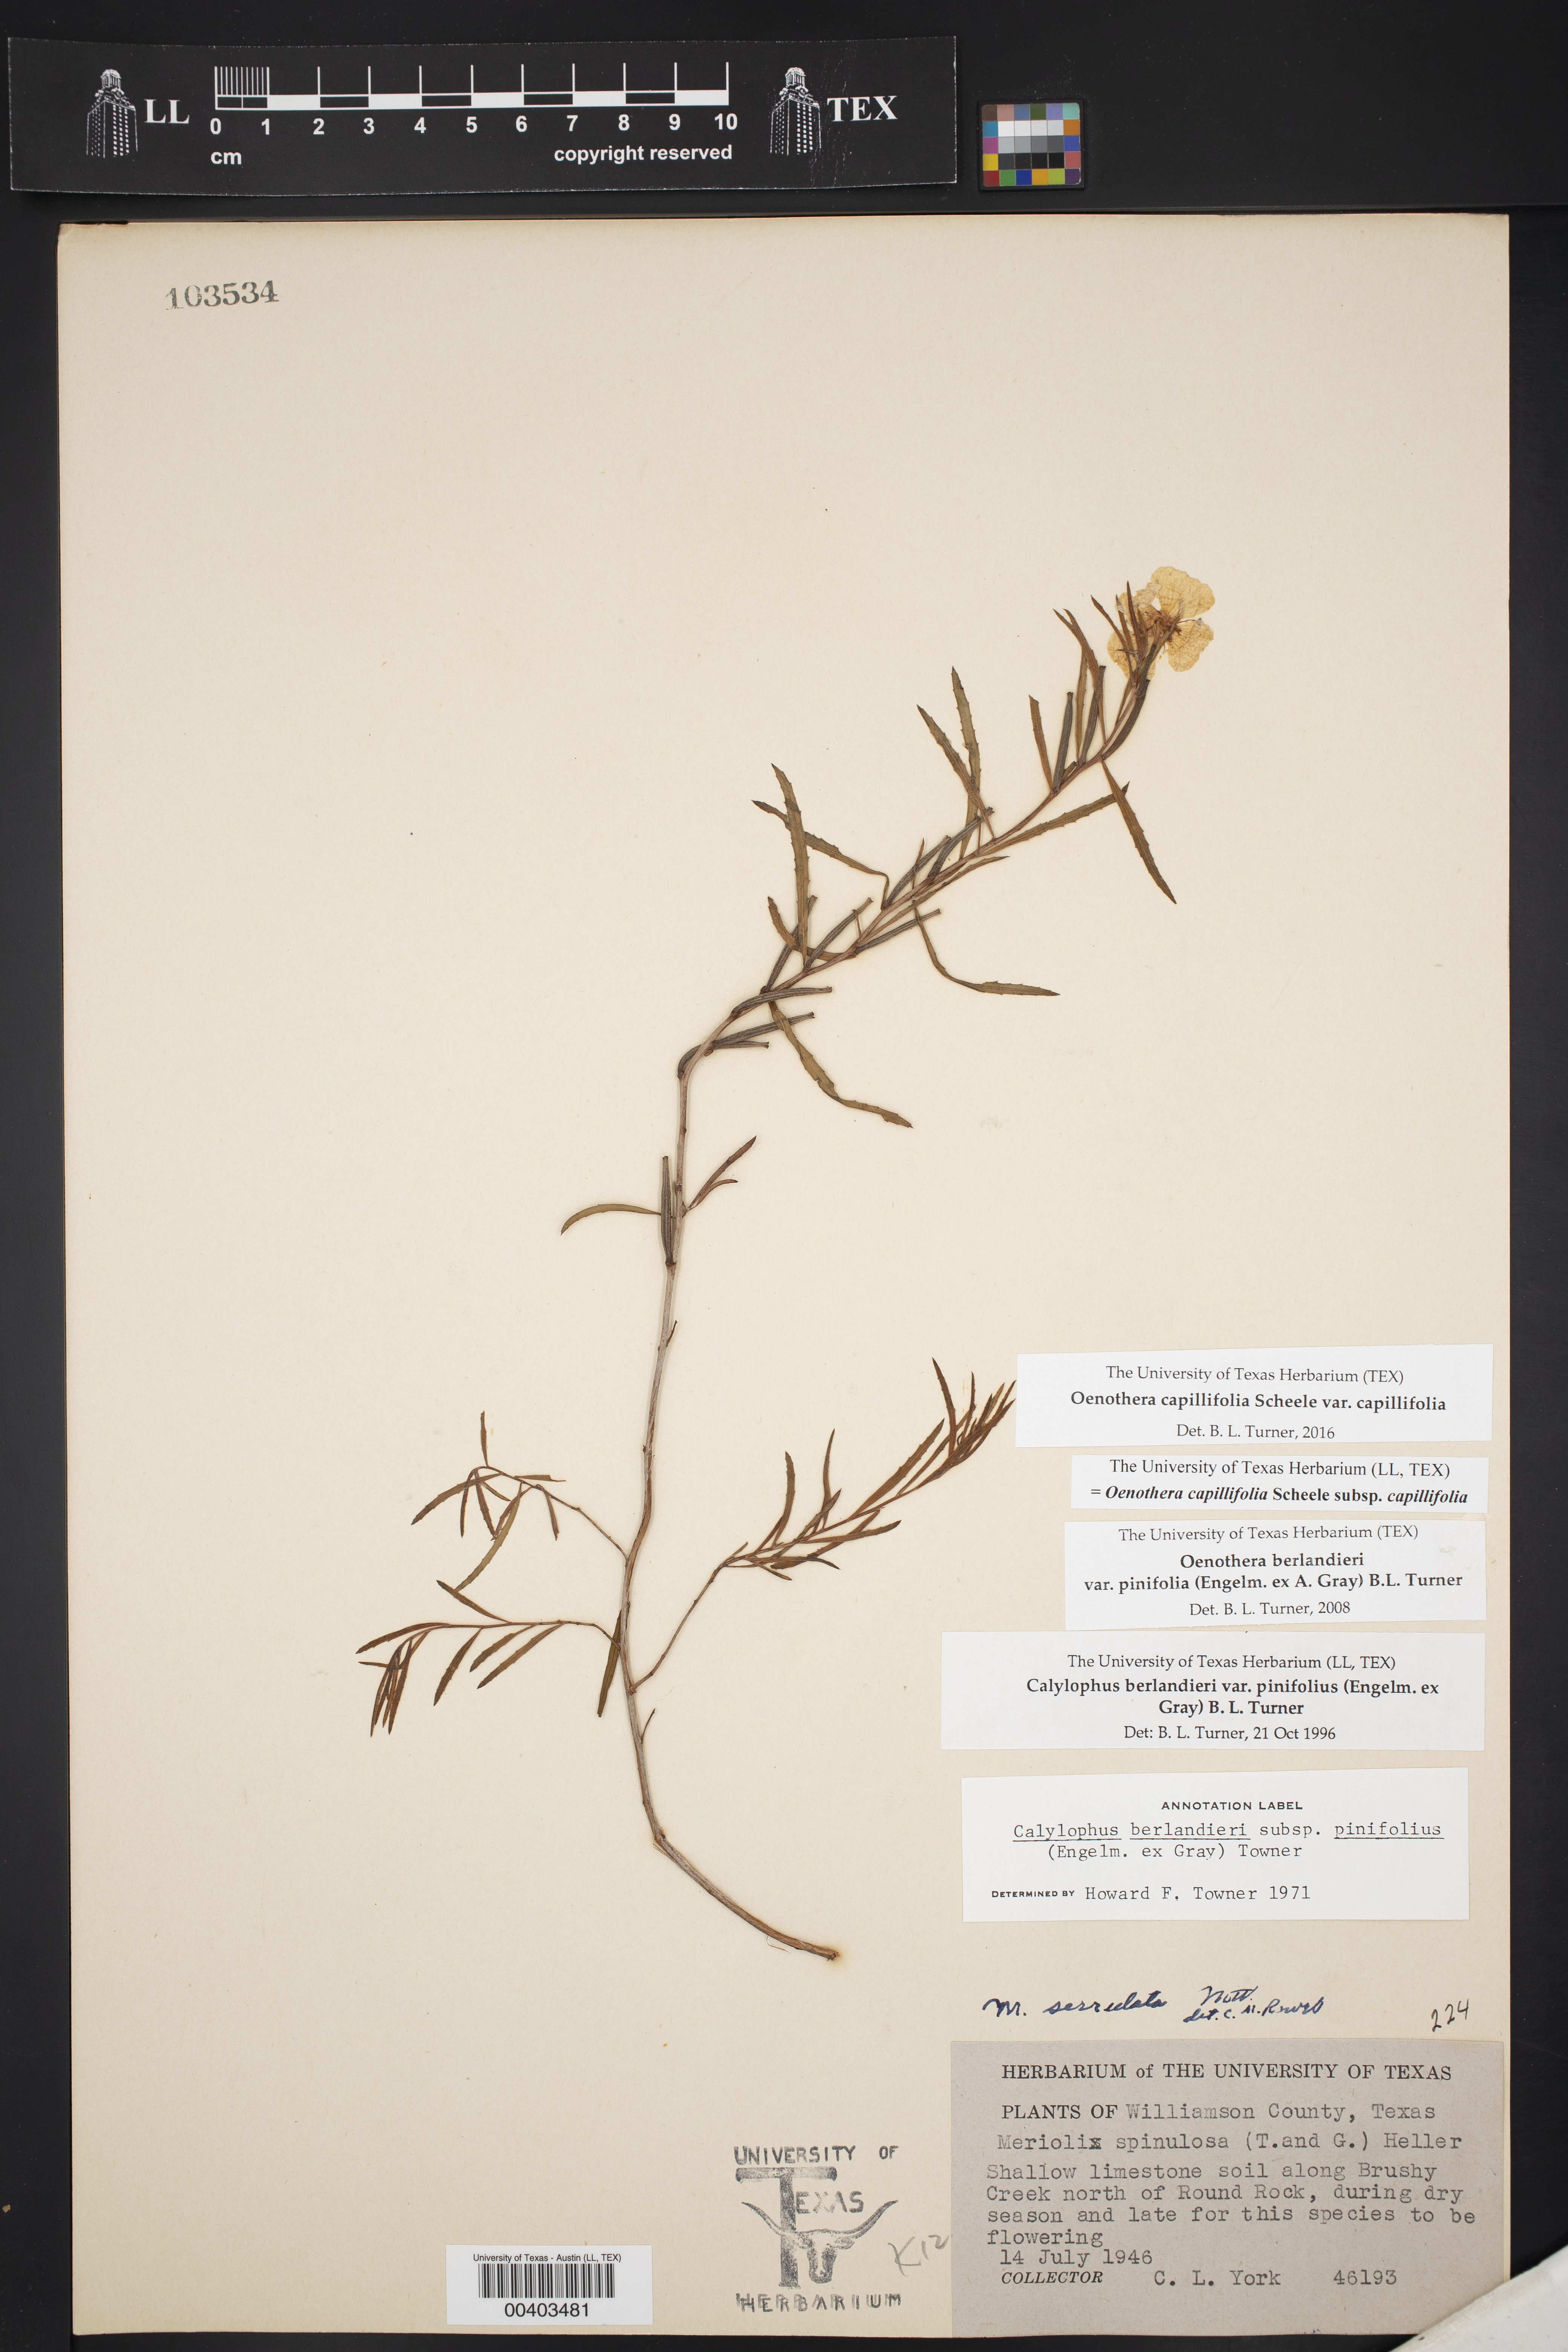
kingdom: Plantae
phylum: Tracheophyta
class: Magnoliopsida
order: Myrtales
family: Onagraceae
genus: Oenothera
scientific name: Oenothera capillifolia
